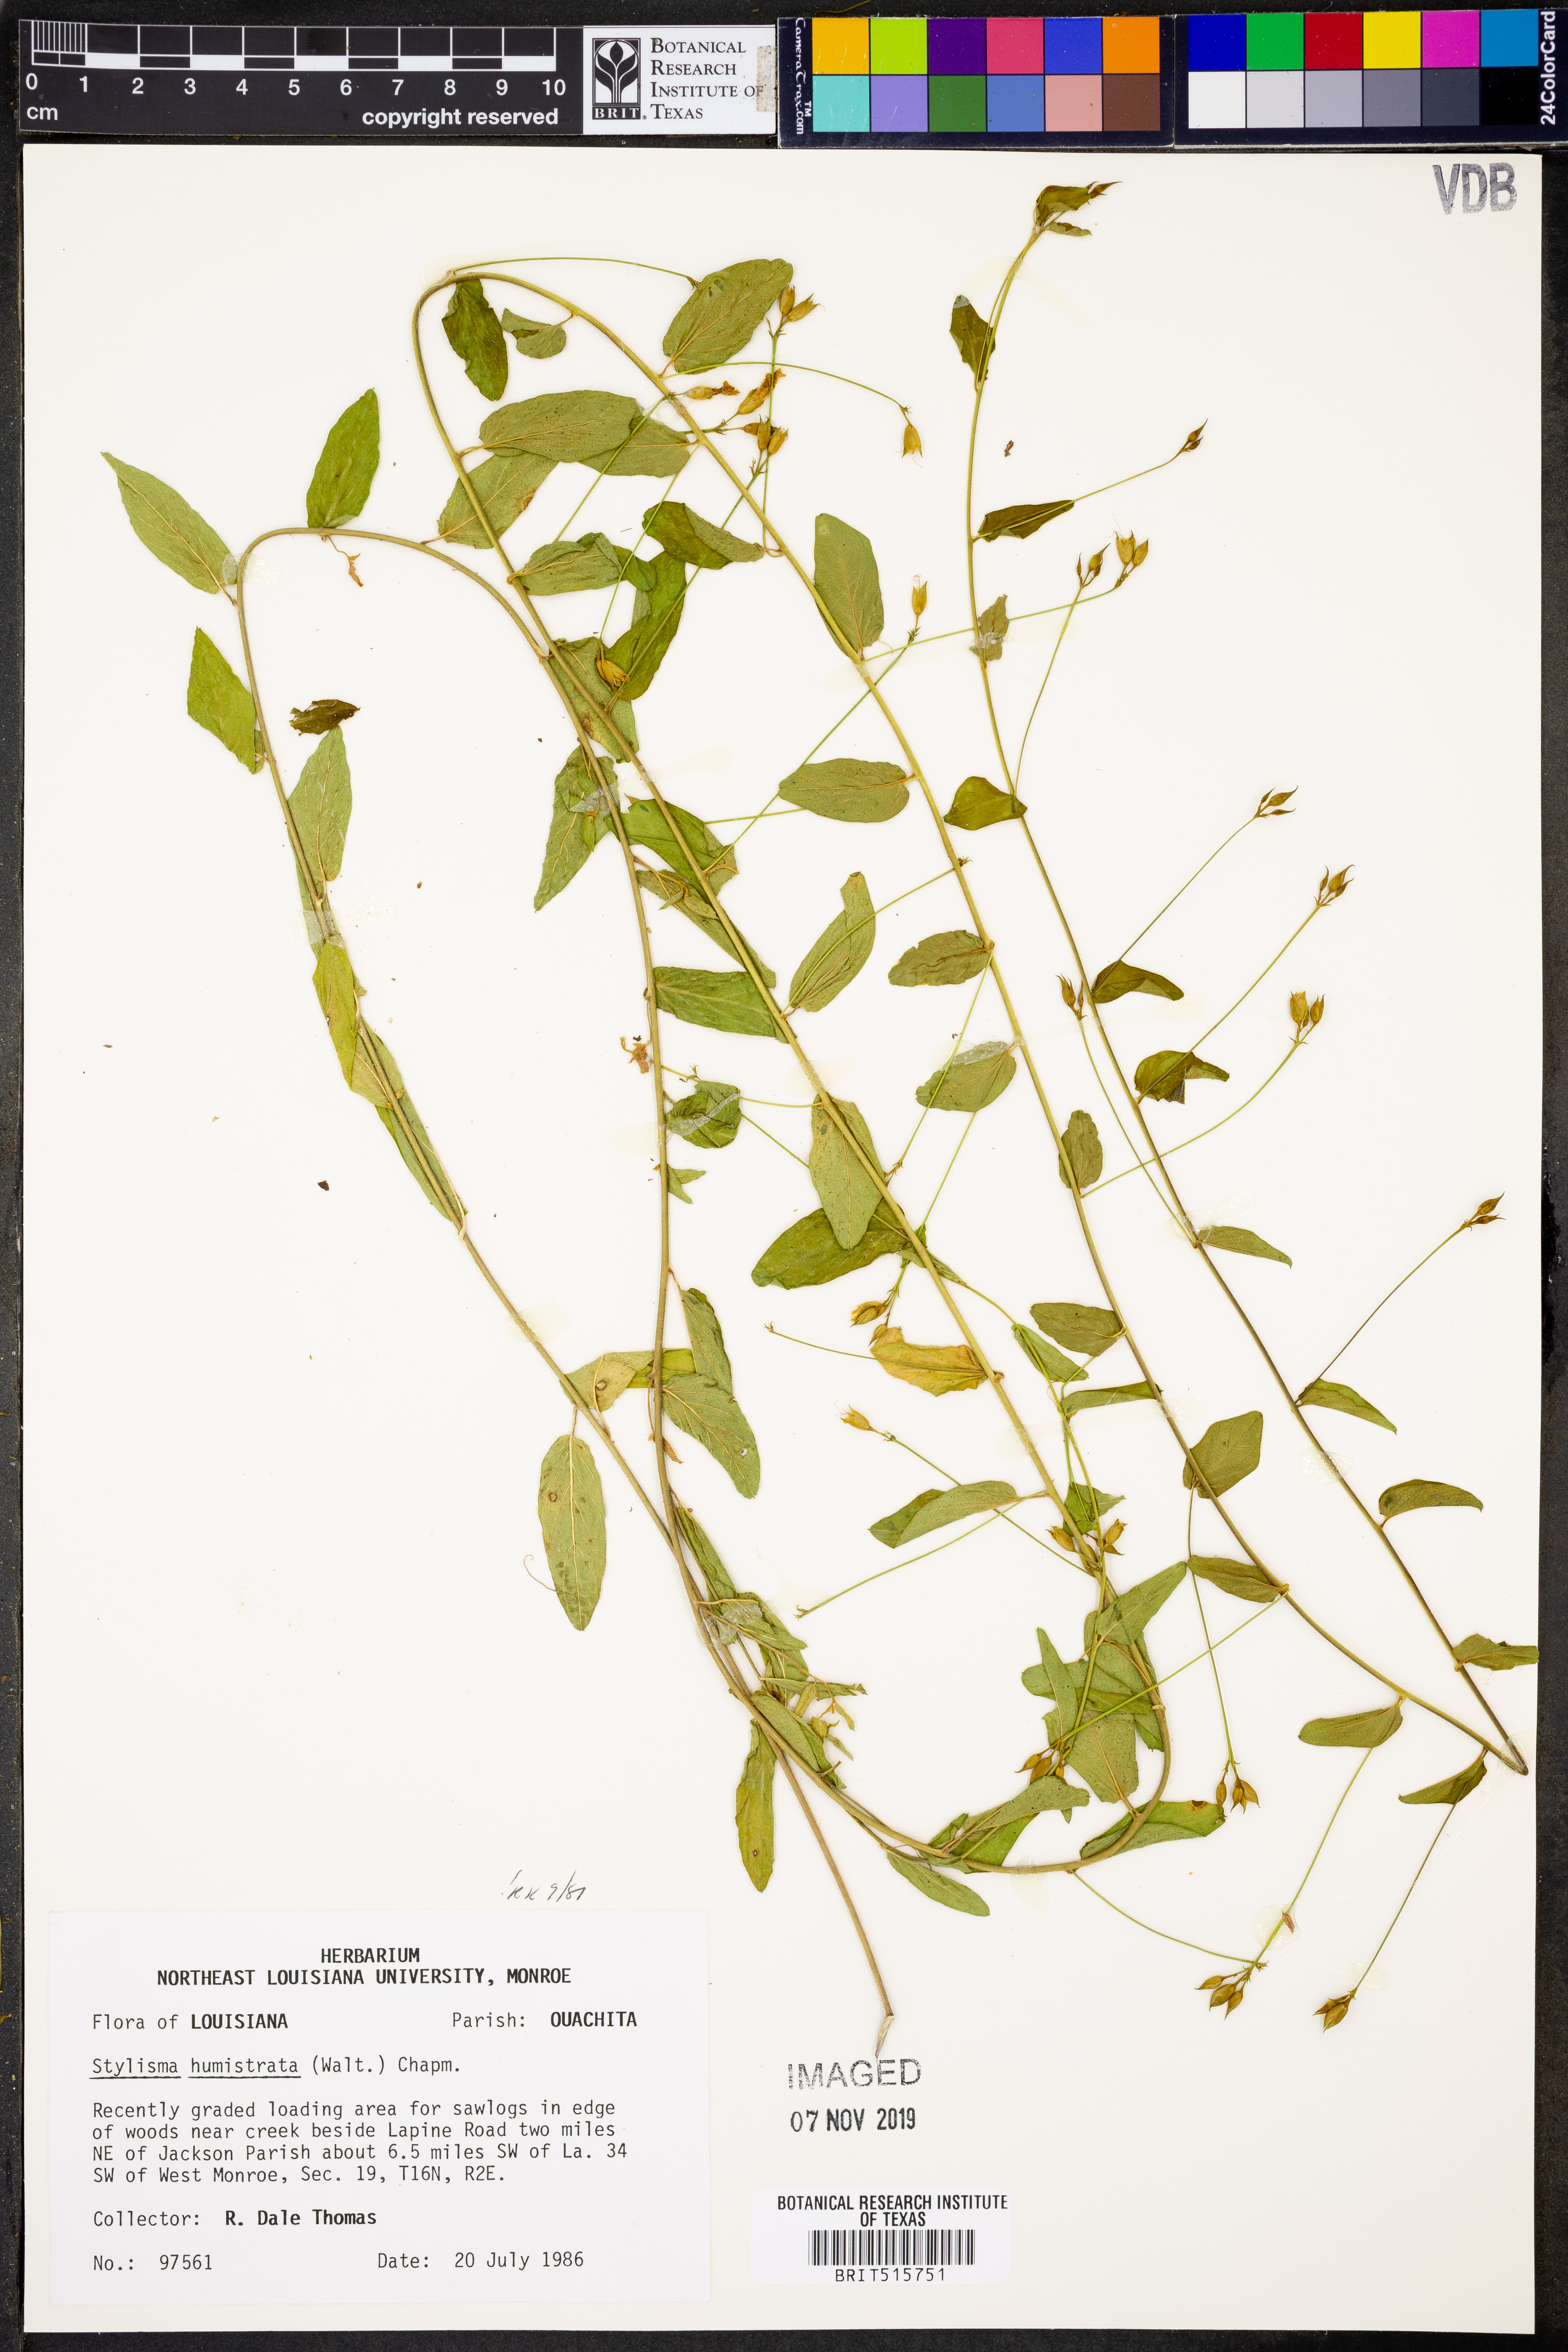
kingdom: Plantae
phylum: Tracheophyta
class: Magnoliopsida
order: Solanales
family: Convolvulaceae
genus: Stylisma
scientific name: Stylisma humistrata
